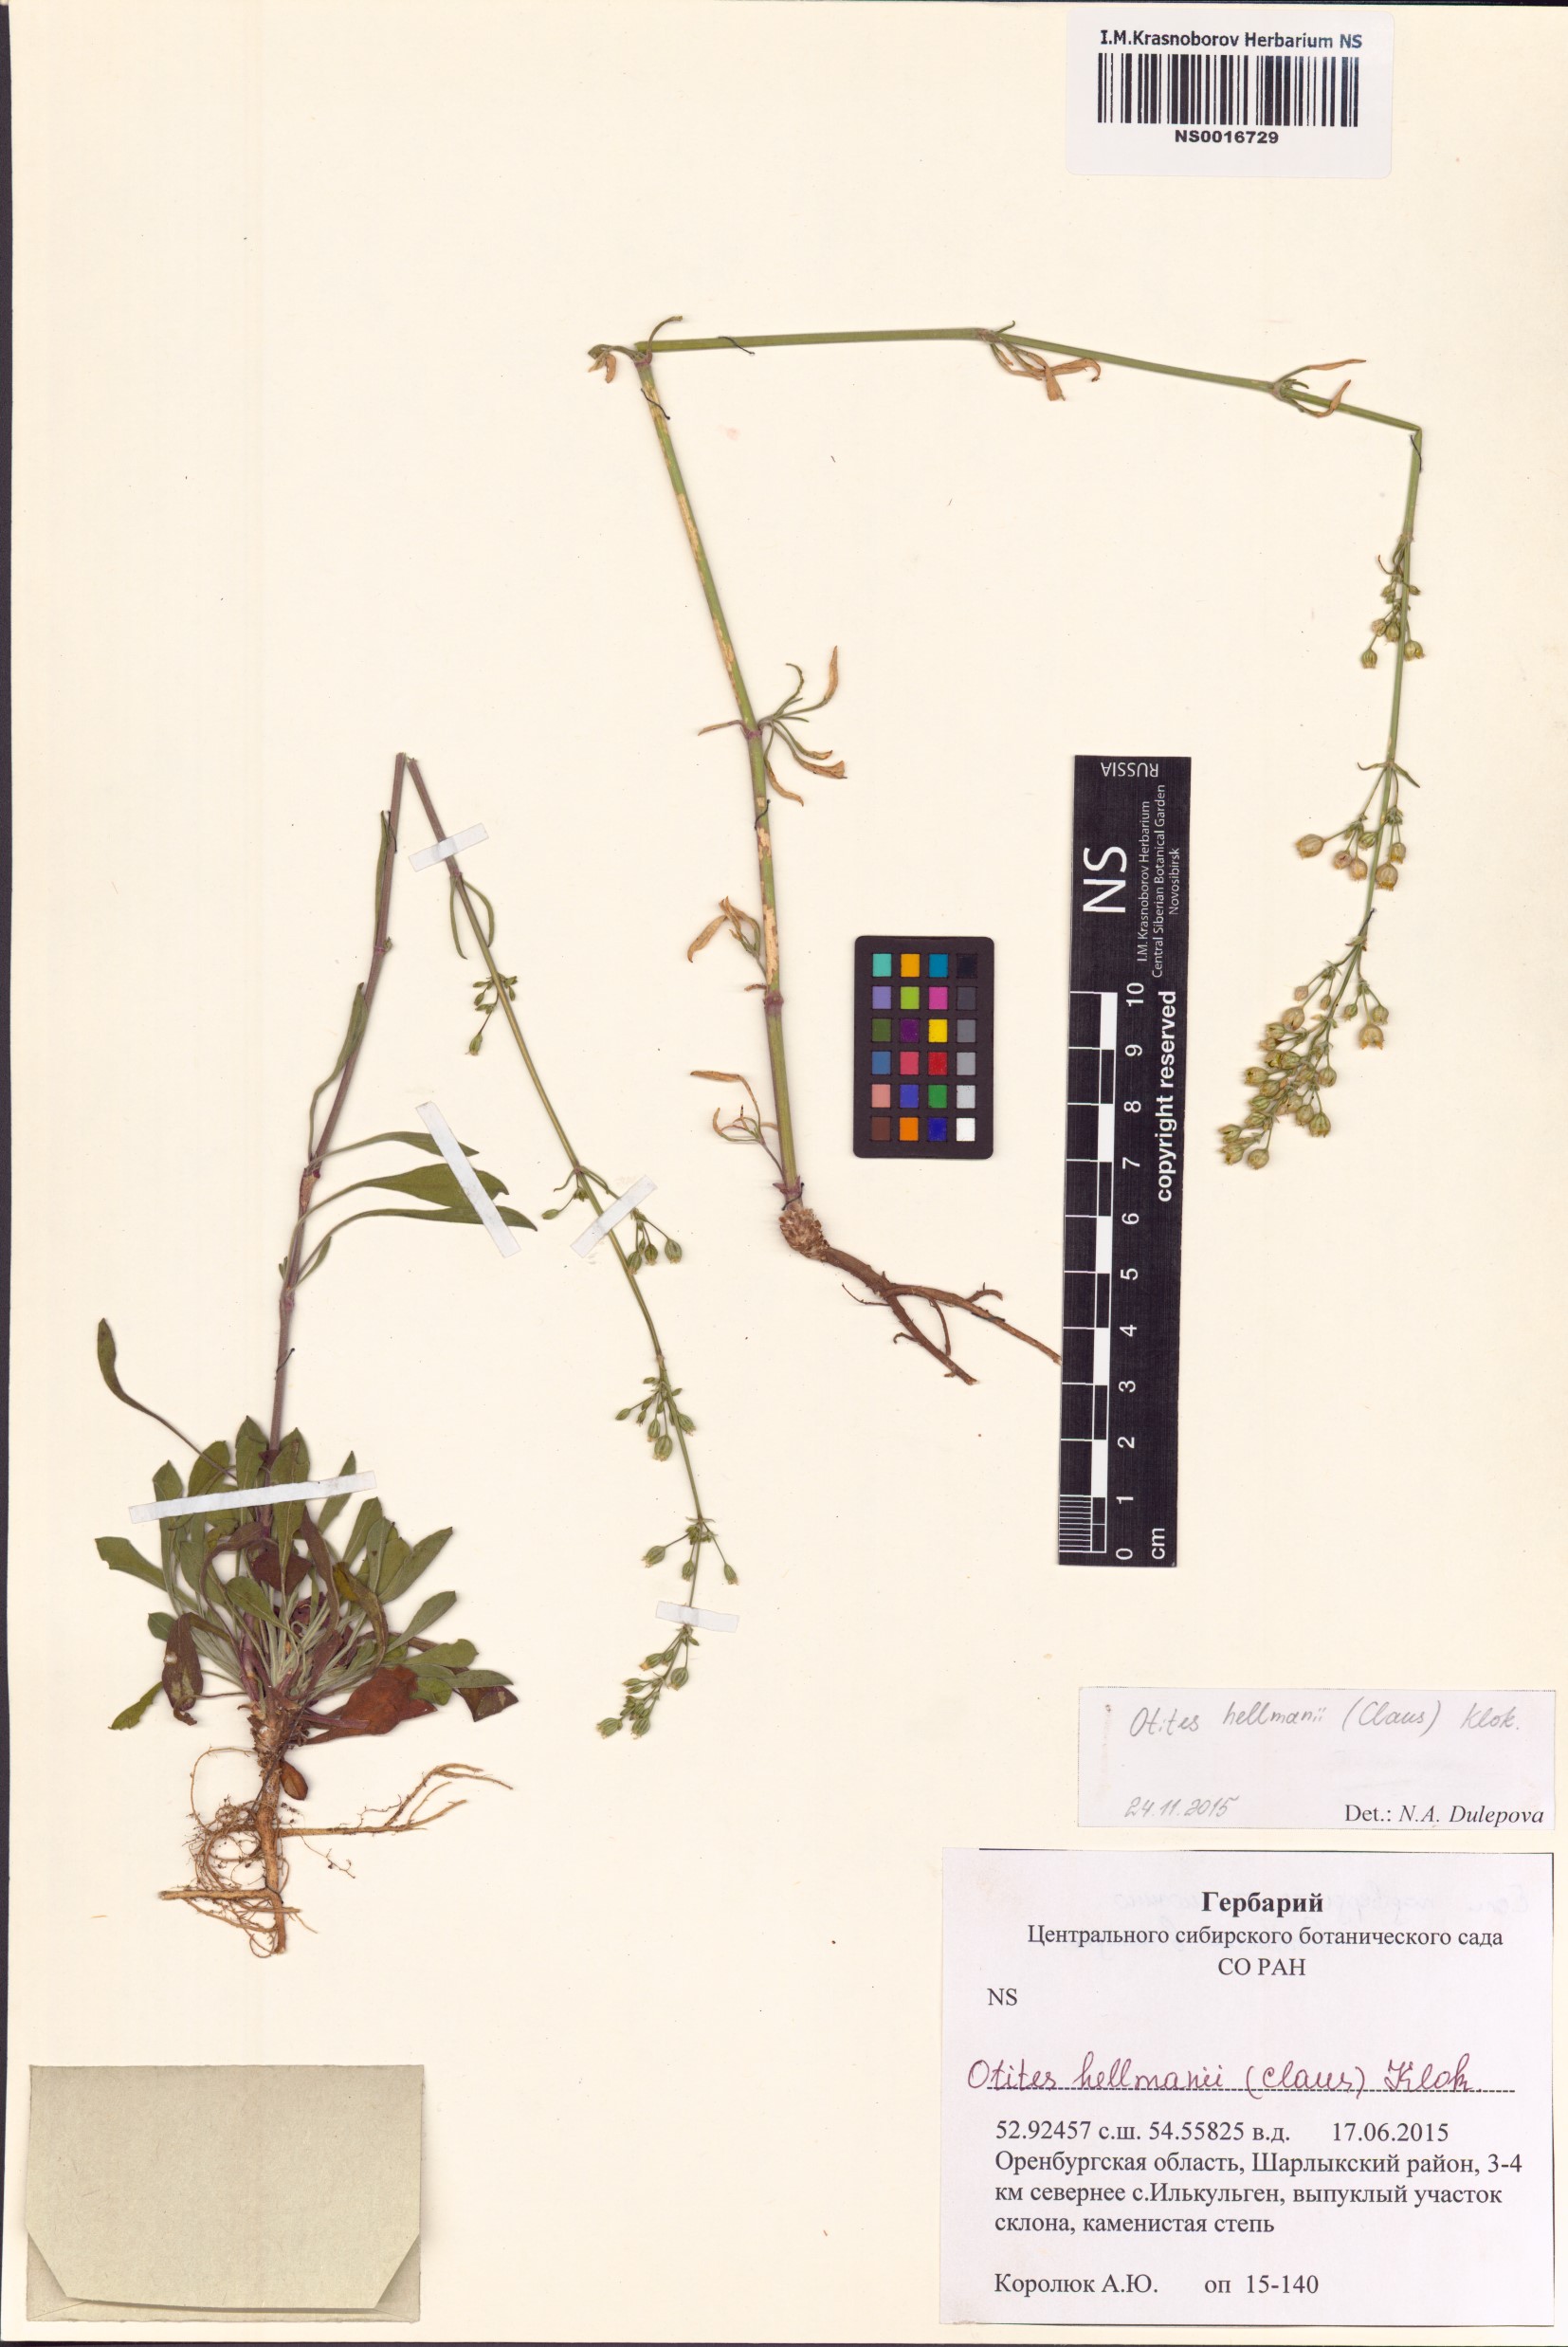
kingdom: Plantae
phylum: Tracheophyta
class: Magnoliopsida
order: Caryophyllales
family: Caryophyllaceae
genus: Silene
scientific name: Silene hellmannii
